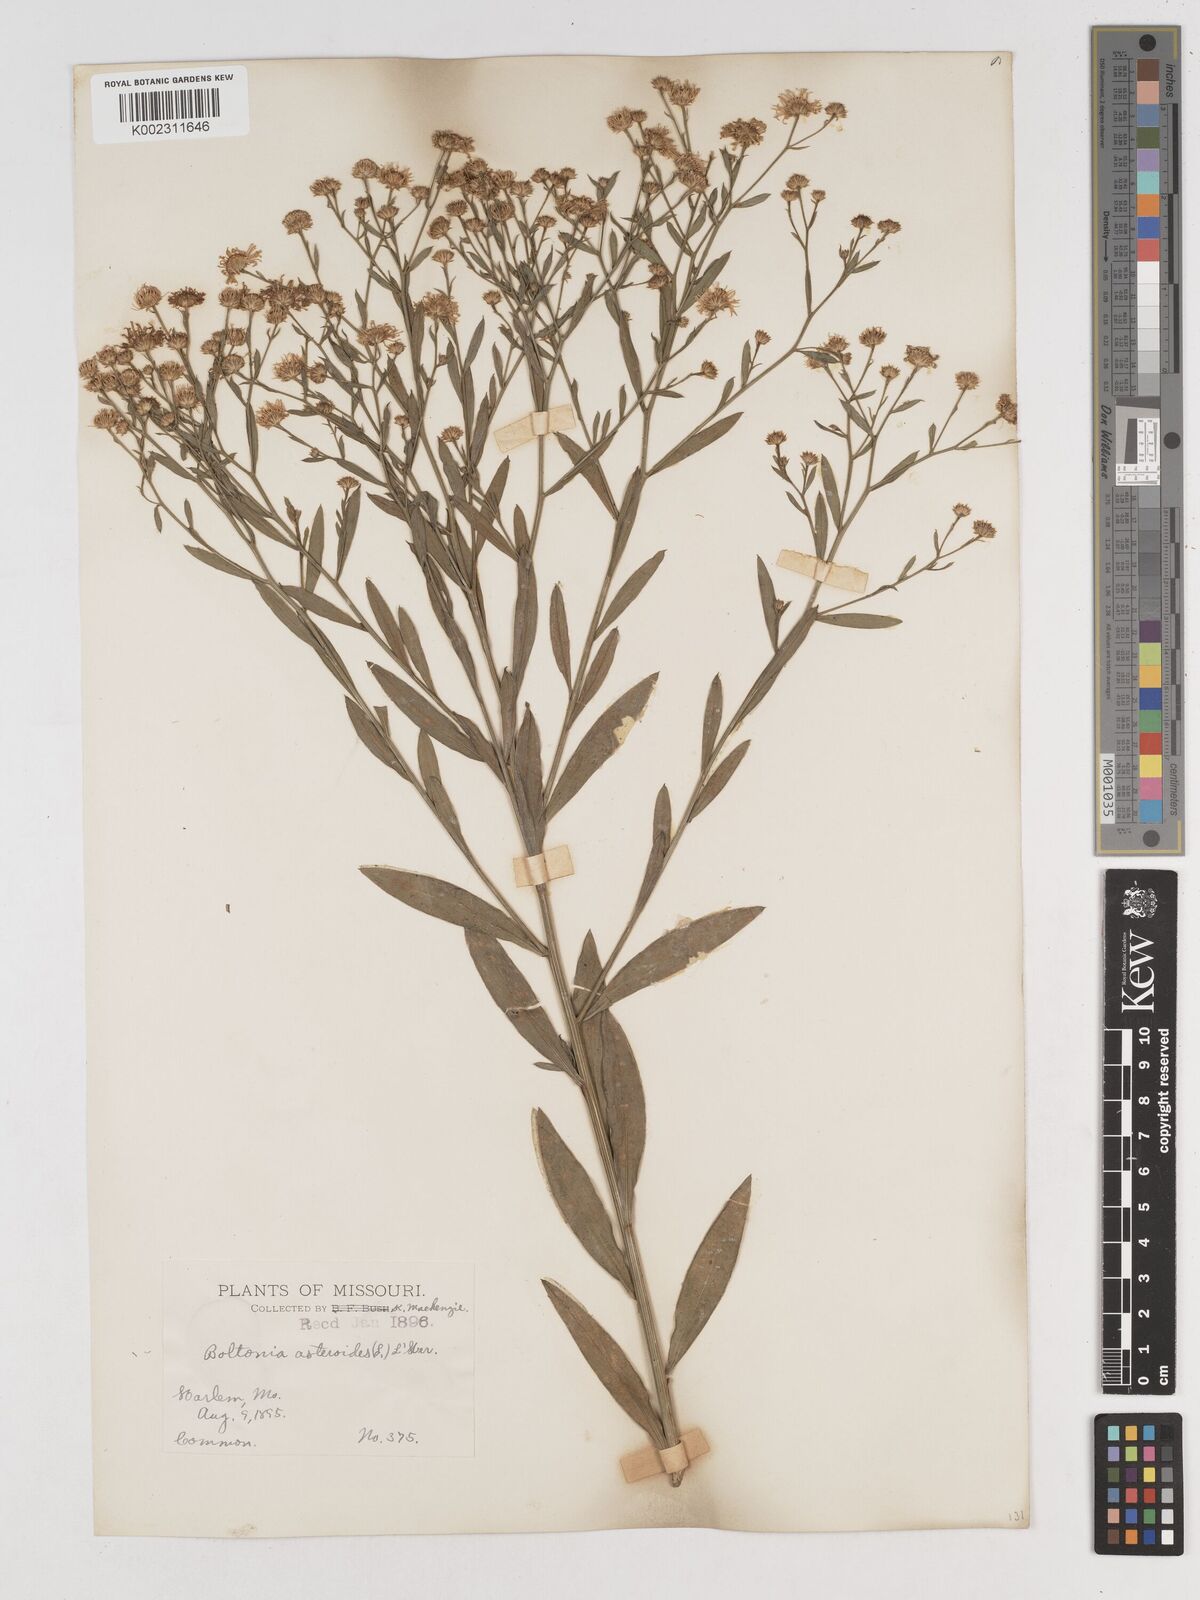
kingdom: Plantae
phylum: Tracheophyta
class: Magnoliopsida
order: Asterales
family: Asteraceae
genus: Boltonia
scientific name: Boltonia diffusa
